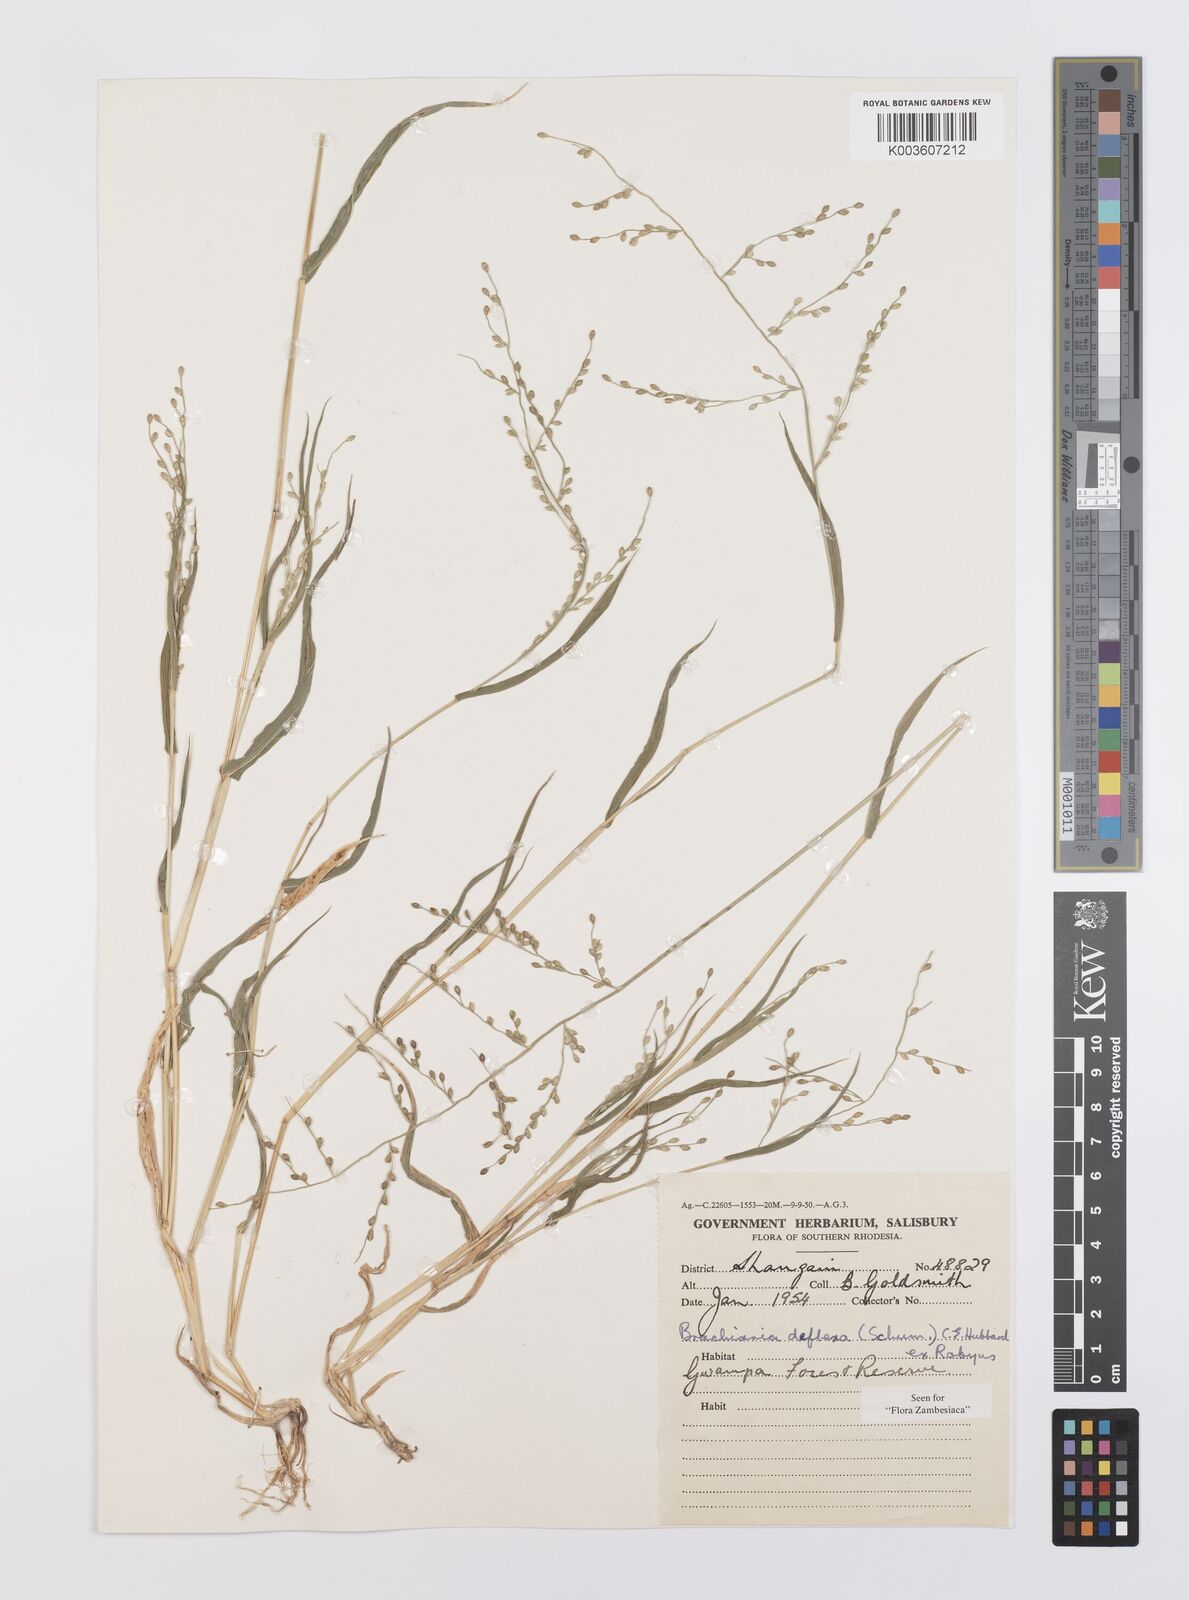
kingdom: Plantae
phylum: Tracheophyta
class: Liliopsida
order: Poales
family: Poaceae
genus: Urochloa
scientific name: Urochloa deflexa
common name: Guinea millet
